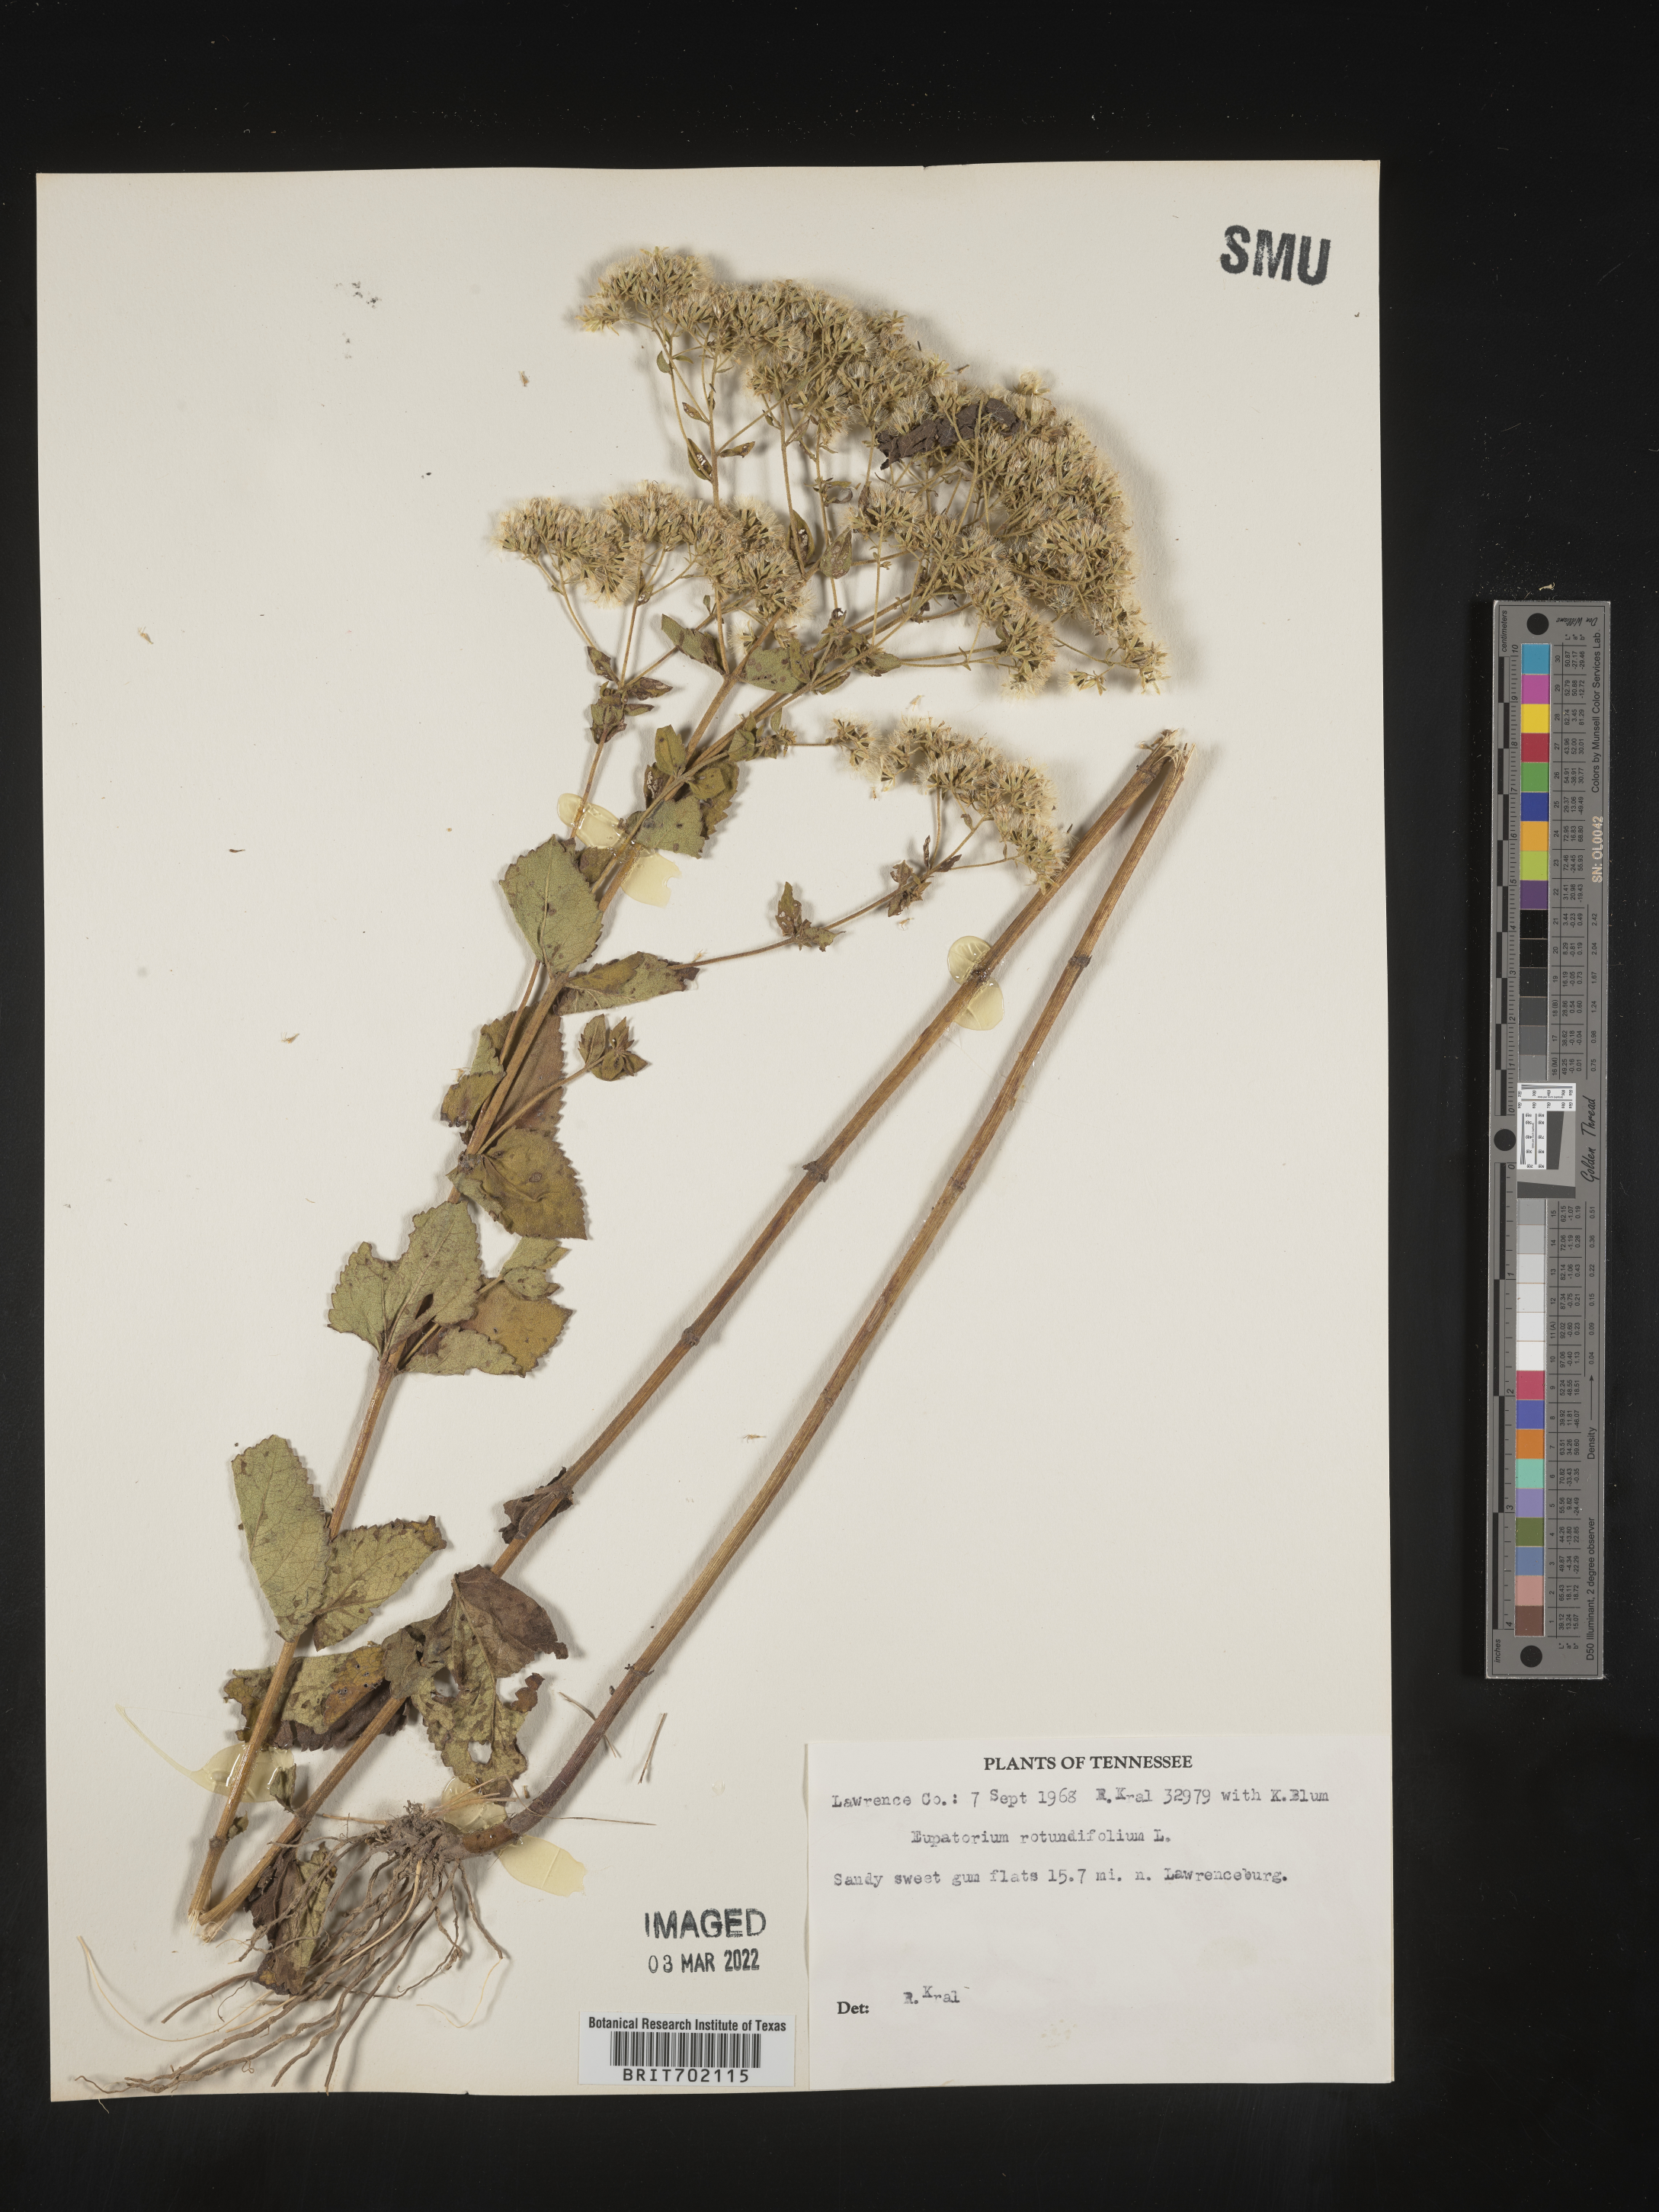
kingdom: Plantae
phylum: Tracheophyta
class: Magnoliopsida
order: Asterales
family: Asteraceae
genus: Eupatorium
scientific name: Eupatorium rotundifolium
